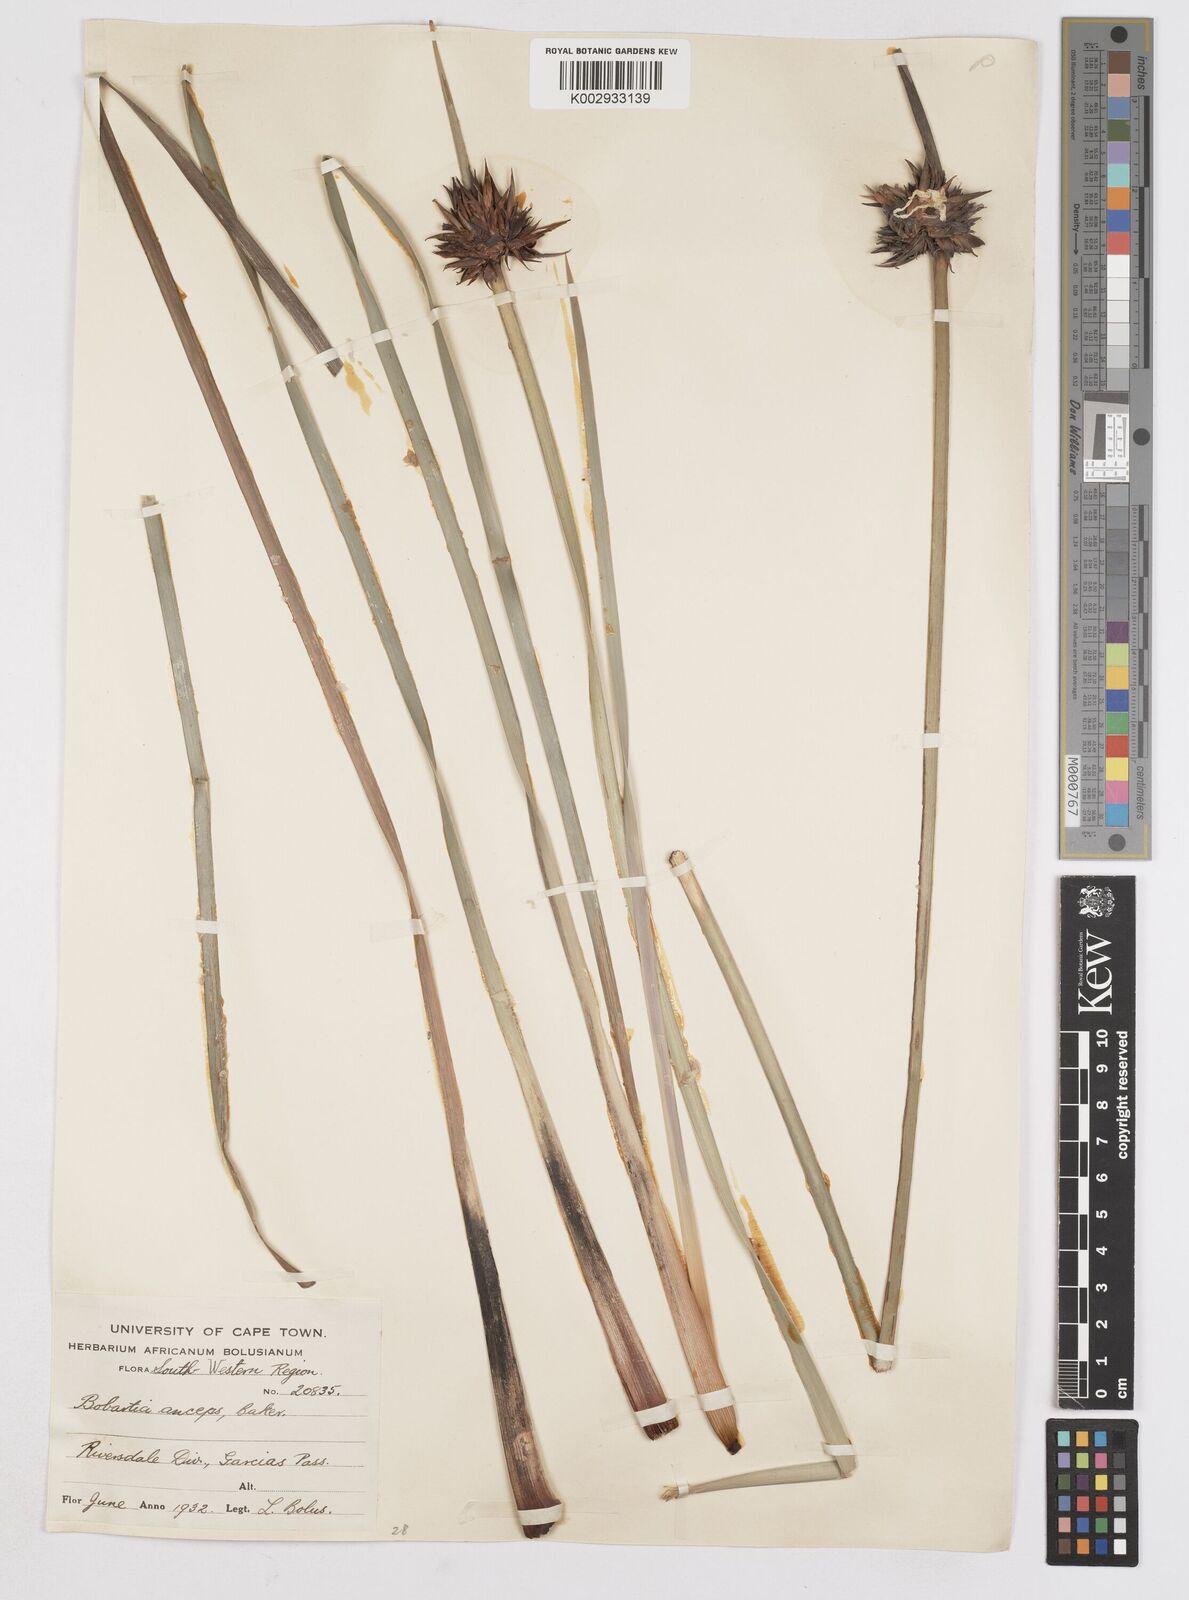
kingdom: Plantae
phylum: Tracheophyta
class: Liliopsida
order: Asparagales
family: Iridaceae
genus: Bobartia
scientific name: Bobartia macrospatha
